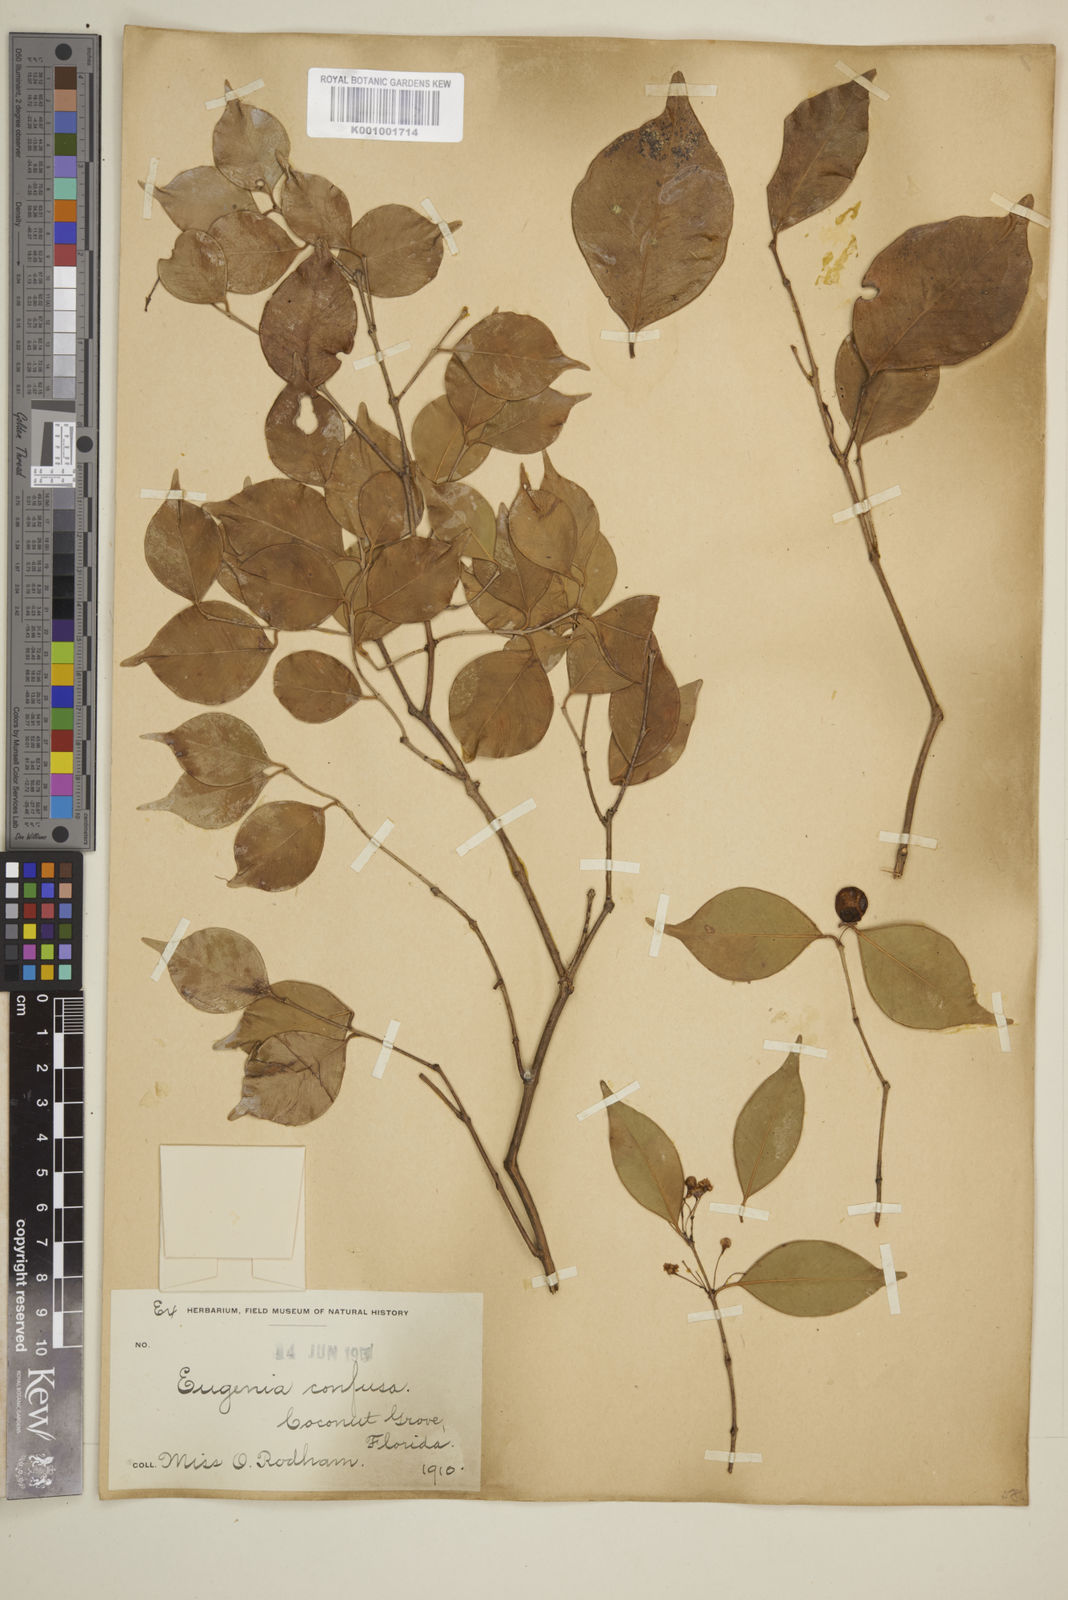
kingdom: Plantae
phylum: Tracheophyta
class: Magnoliopsida
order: Myrtales
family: Myrtaceae
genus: Eugenia
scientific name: Eugenia confusa
